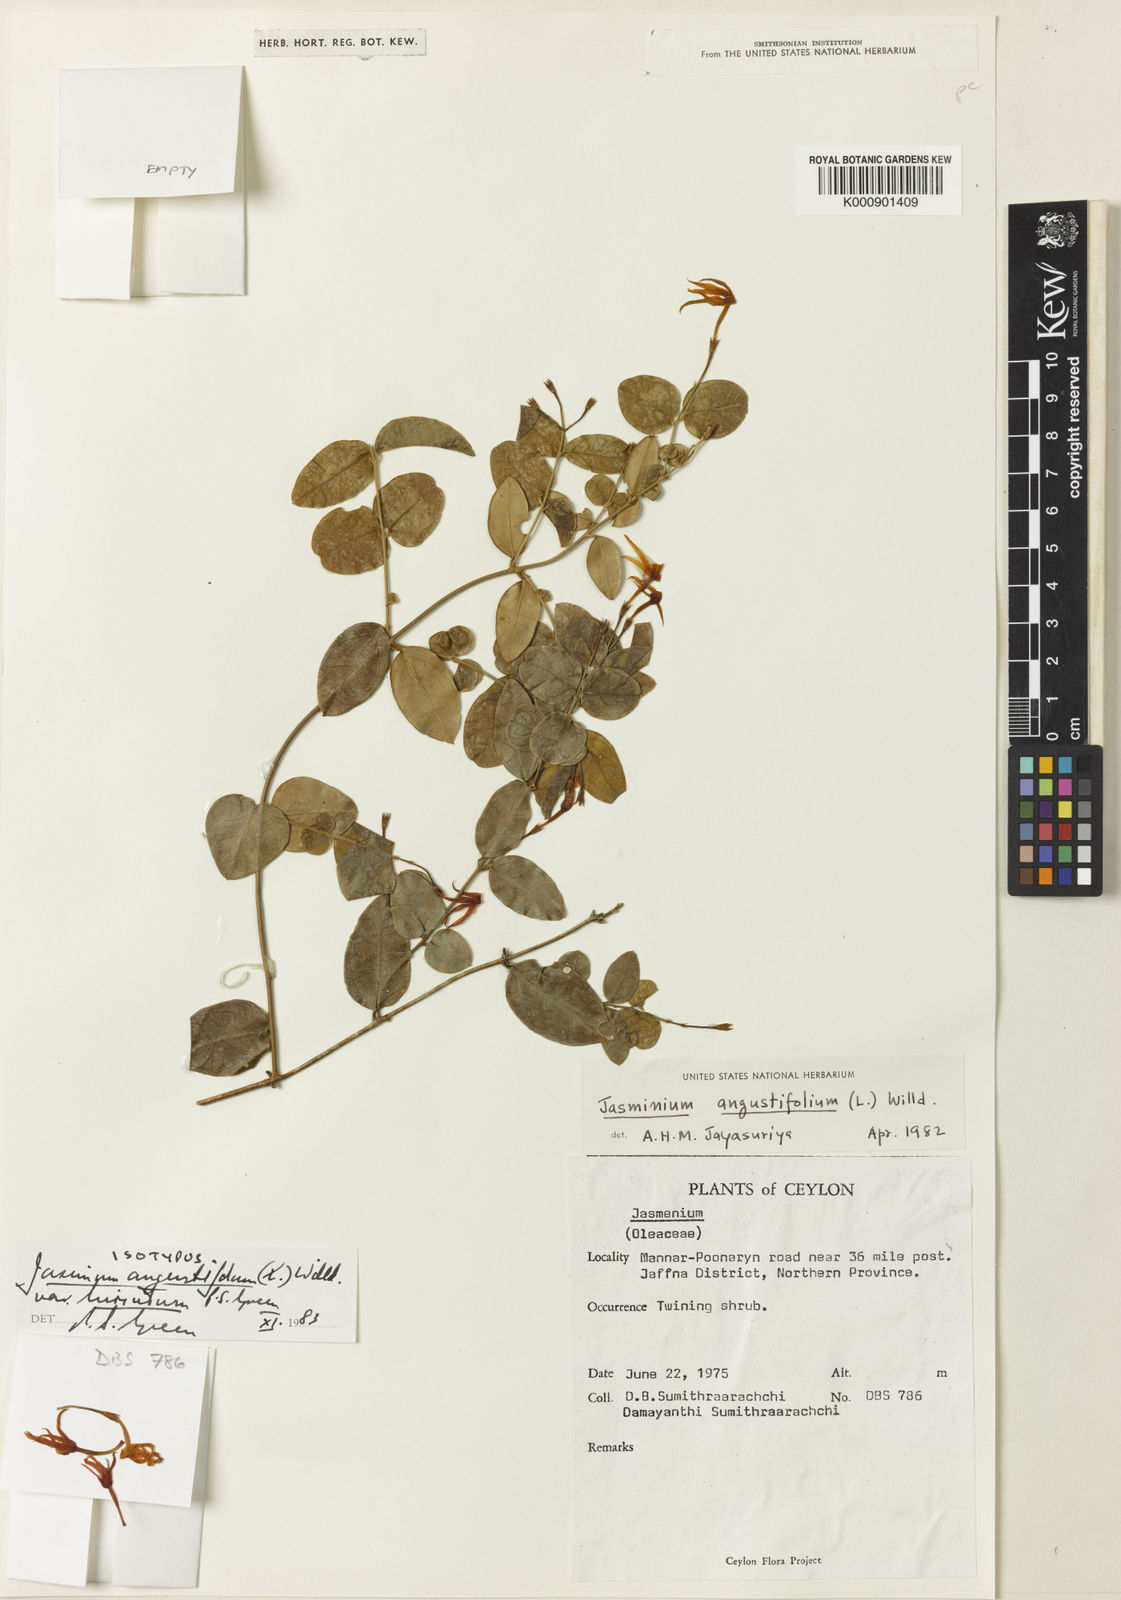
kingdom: Plantae
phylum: Tracheophyta
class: Magnoliopsida
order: Lamiales
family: Oleaceae
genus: Jasminum
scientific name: Jasminum angustifolium
